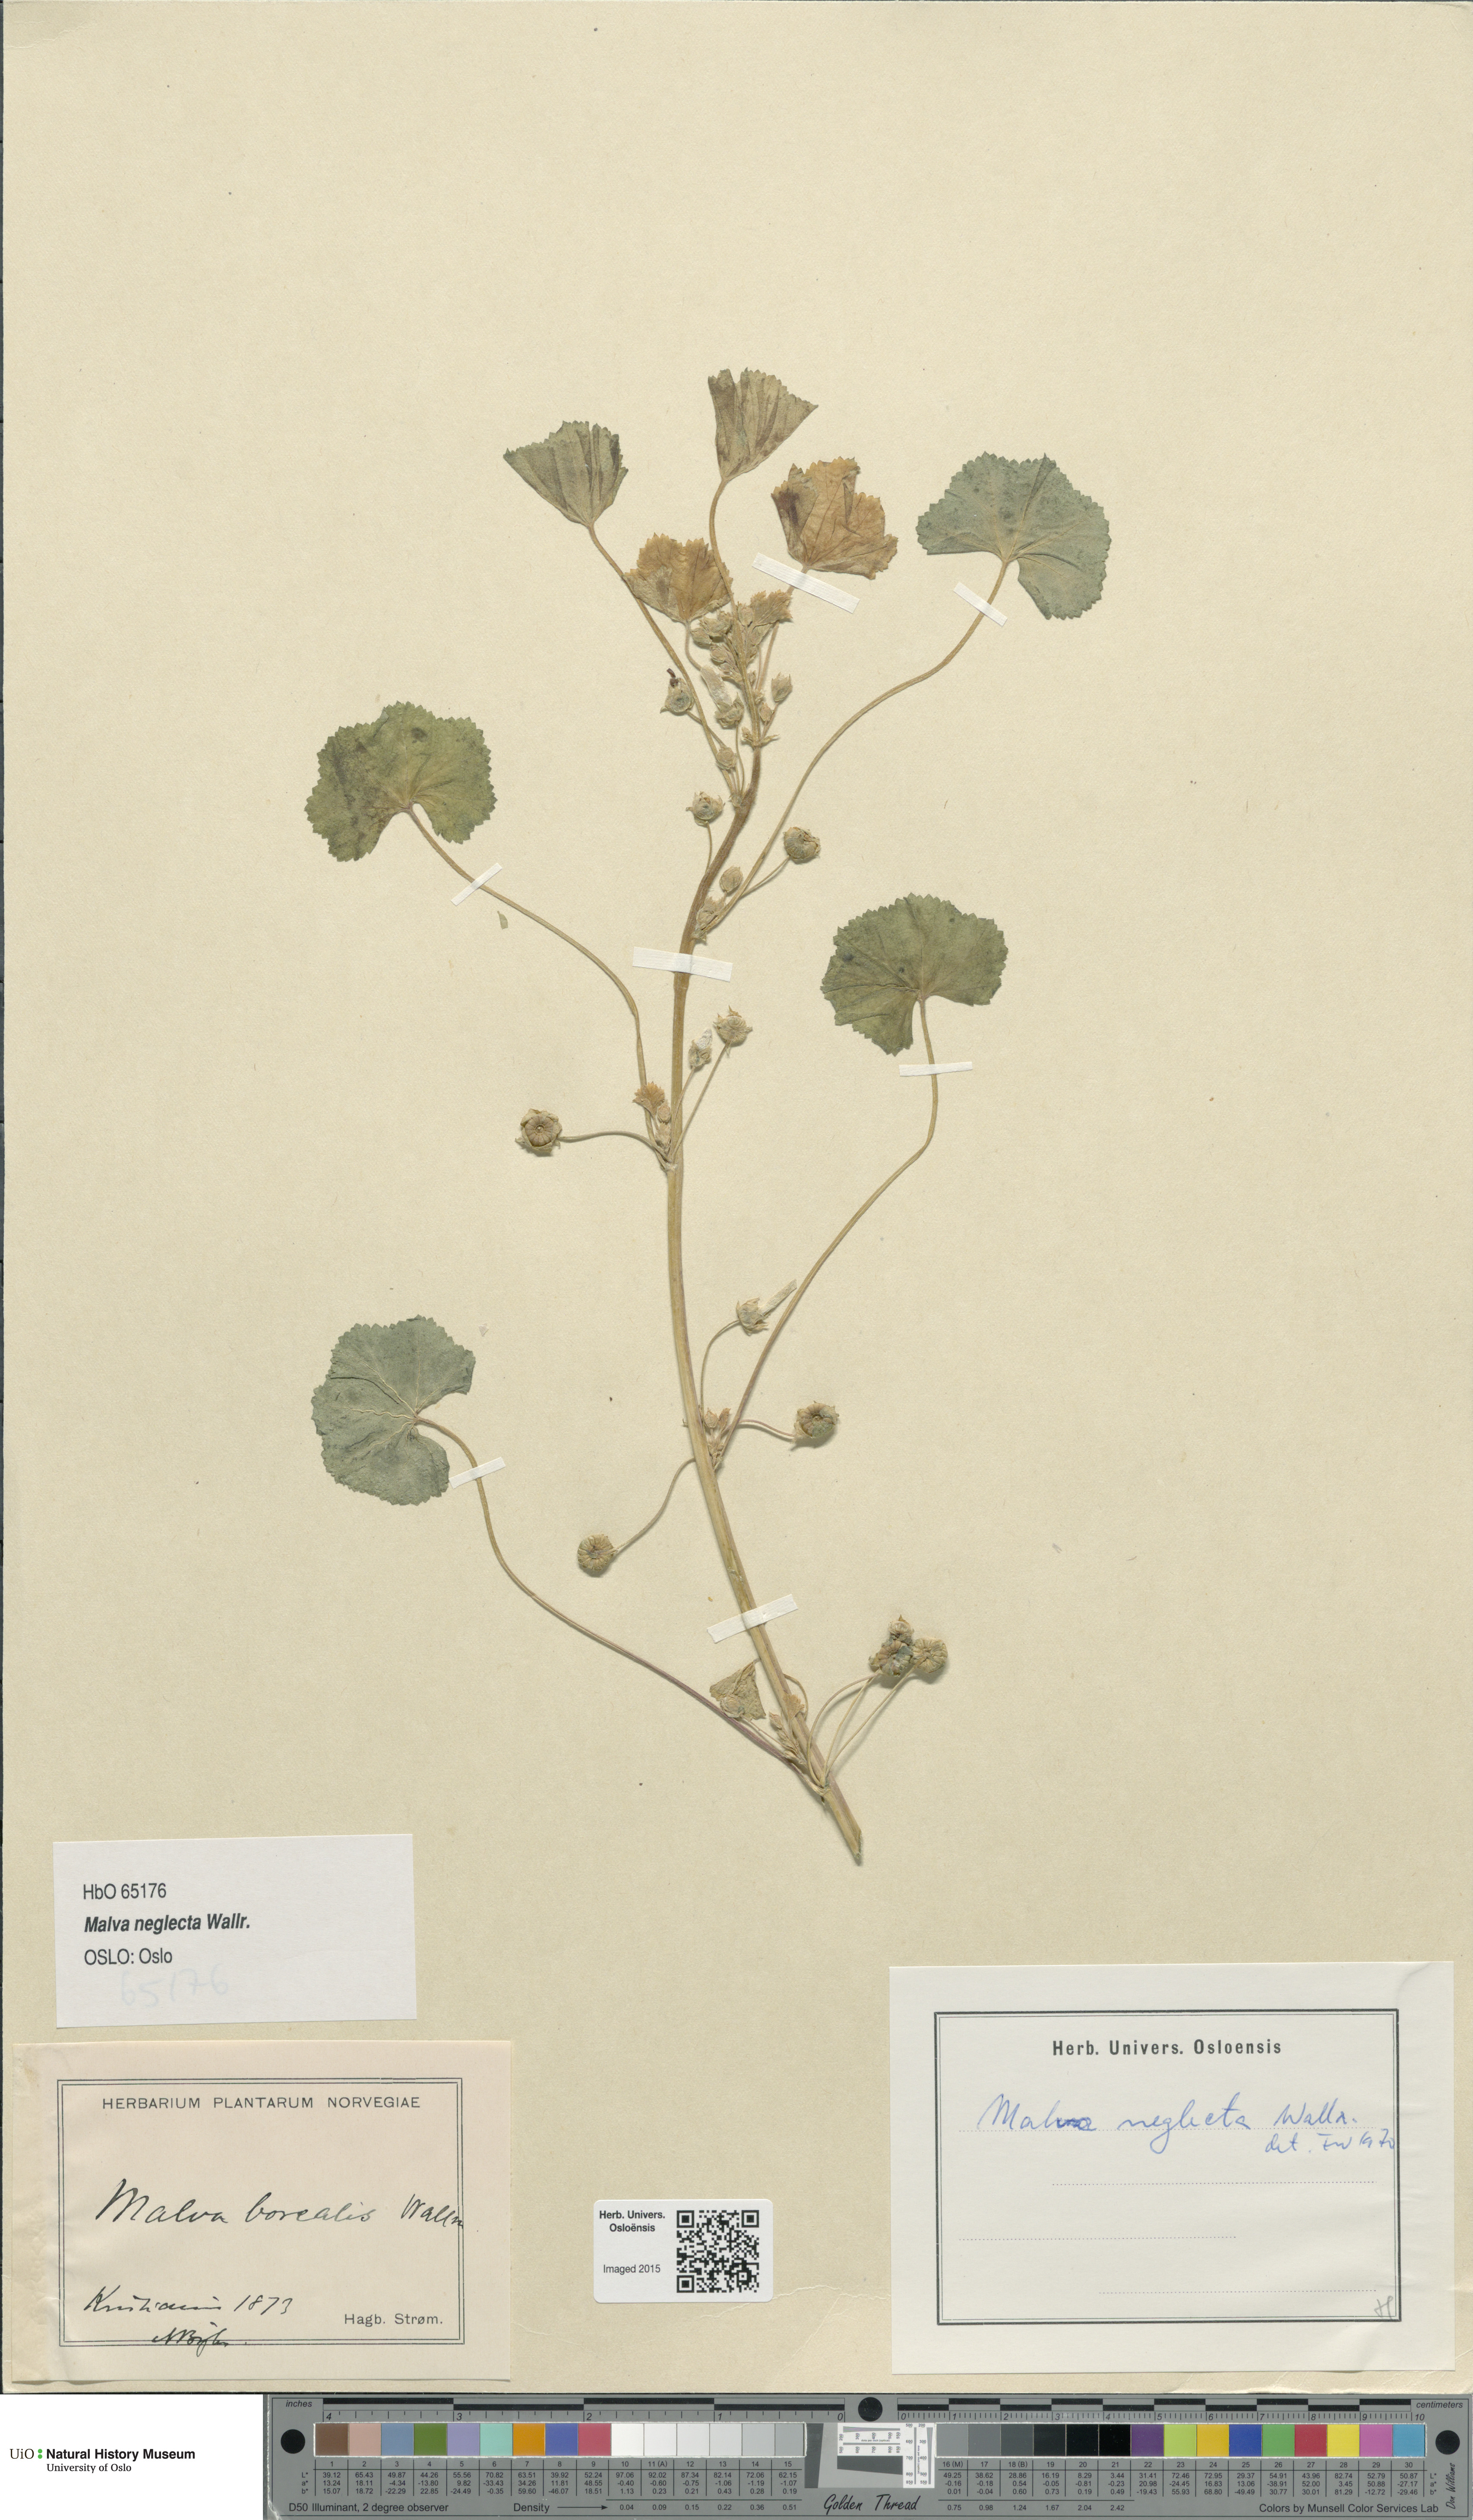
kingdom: Plantae
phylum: Tracheophyta
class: Magnoliopsida
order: Malvales
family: Malvaceae
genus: Malva
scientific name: Malva neglecta
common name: Common mallow
